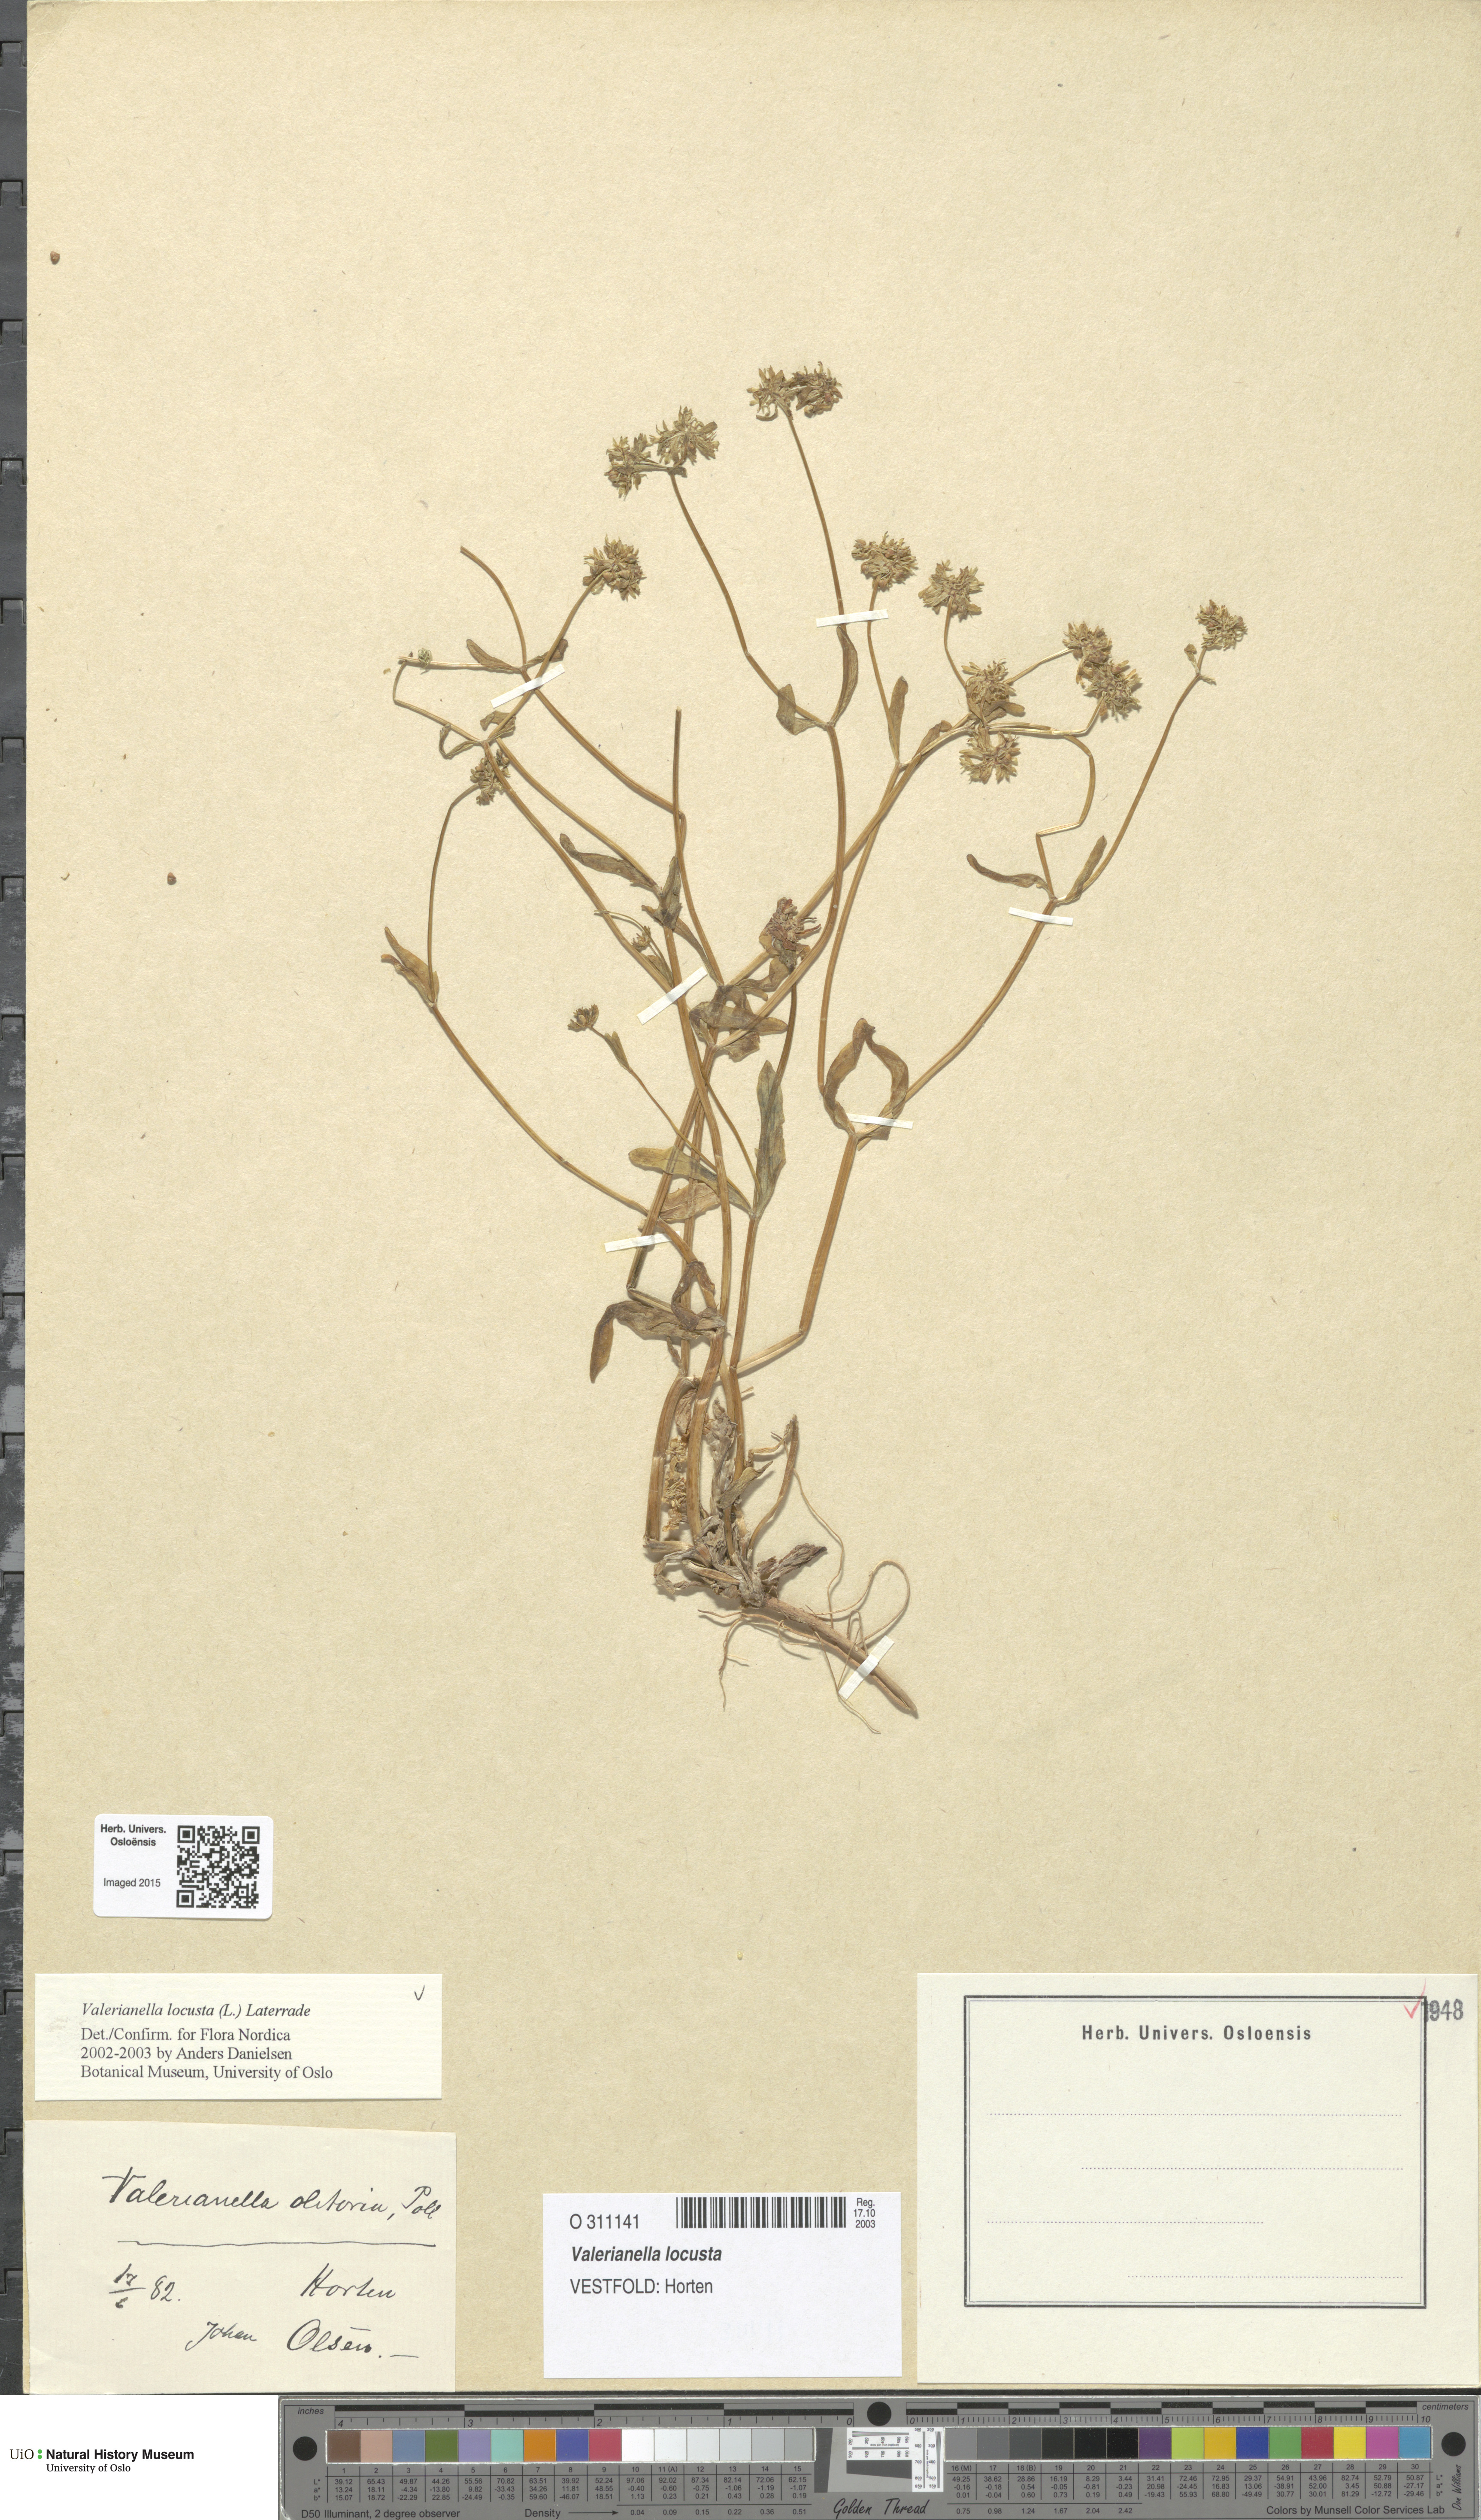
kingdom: Plantae
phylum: Tracheophyta
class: Magnoliopsida
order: Dipsacales
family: Caprifoliaceae
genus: Valerianella
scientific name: Valerianella locusta
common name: Common cornsalad
